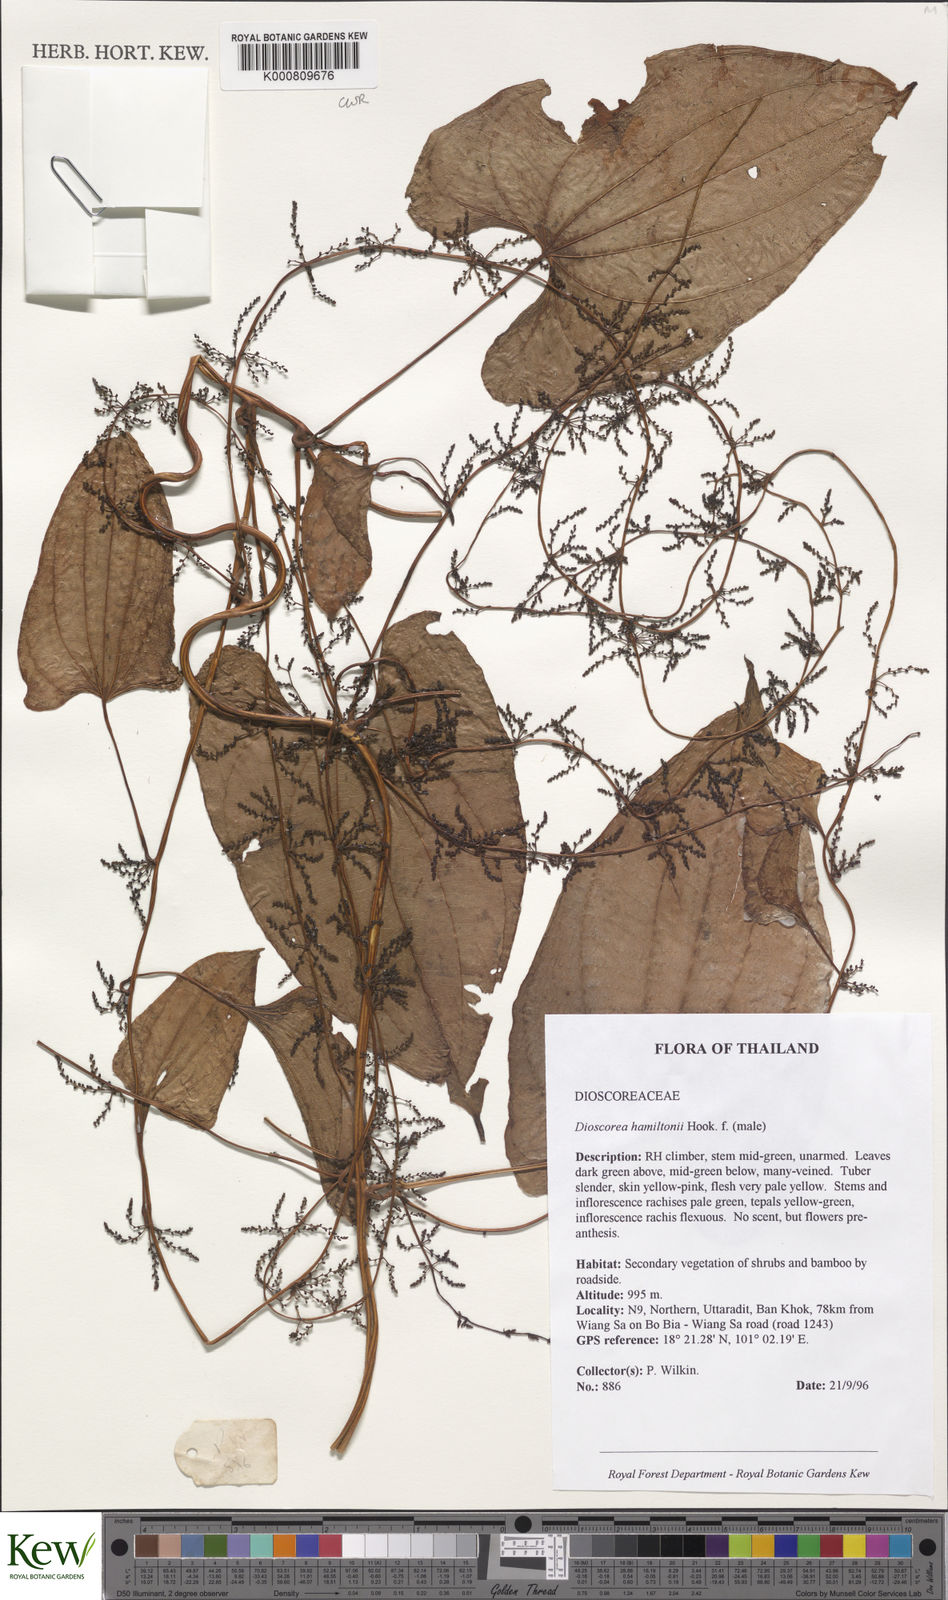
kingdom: Plantae
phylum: Tracheophyta
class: Liliopsida
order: Dioscoreales
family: Dioscoreaceae
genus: Dioscorea
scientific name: Dioscorea hamiltonii
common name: Mountain yam
